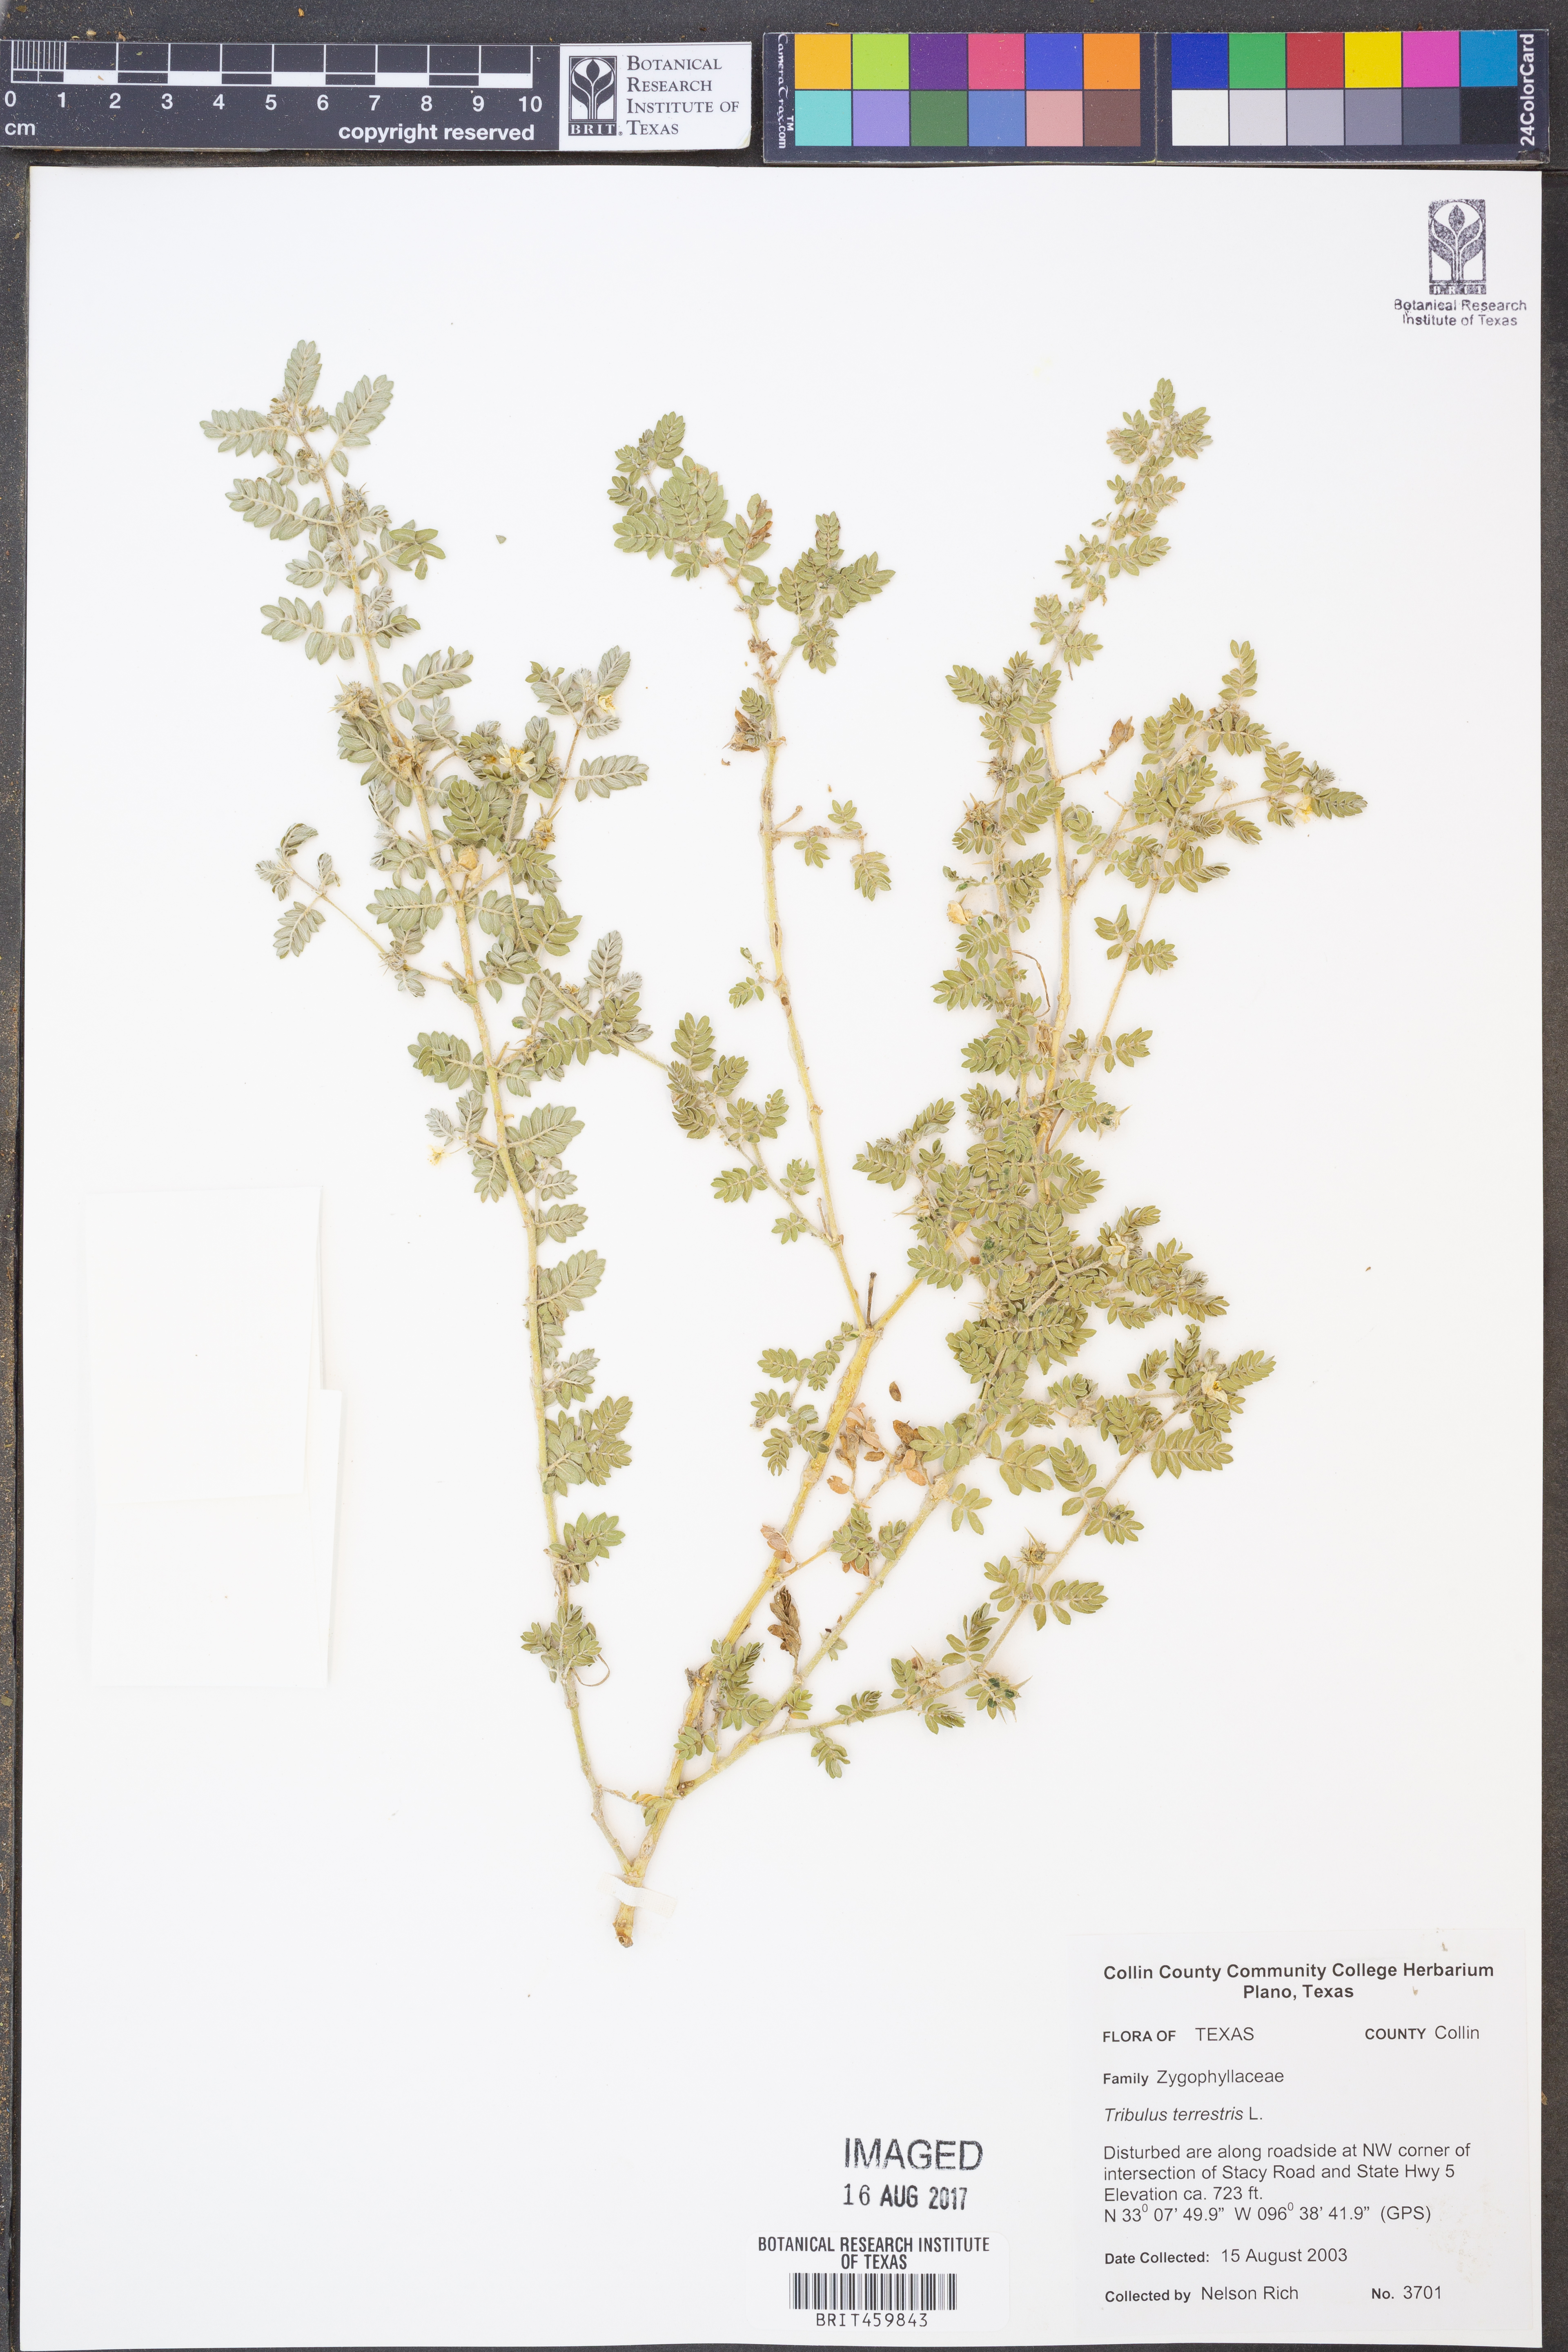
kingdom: Plantae
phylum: Tracheophyta
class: Magnoliopsida
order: Zygophyllales
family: Zygophyllaceae
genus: Tribulus
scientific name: Tribulus terrestris
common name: Puncturevine
